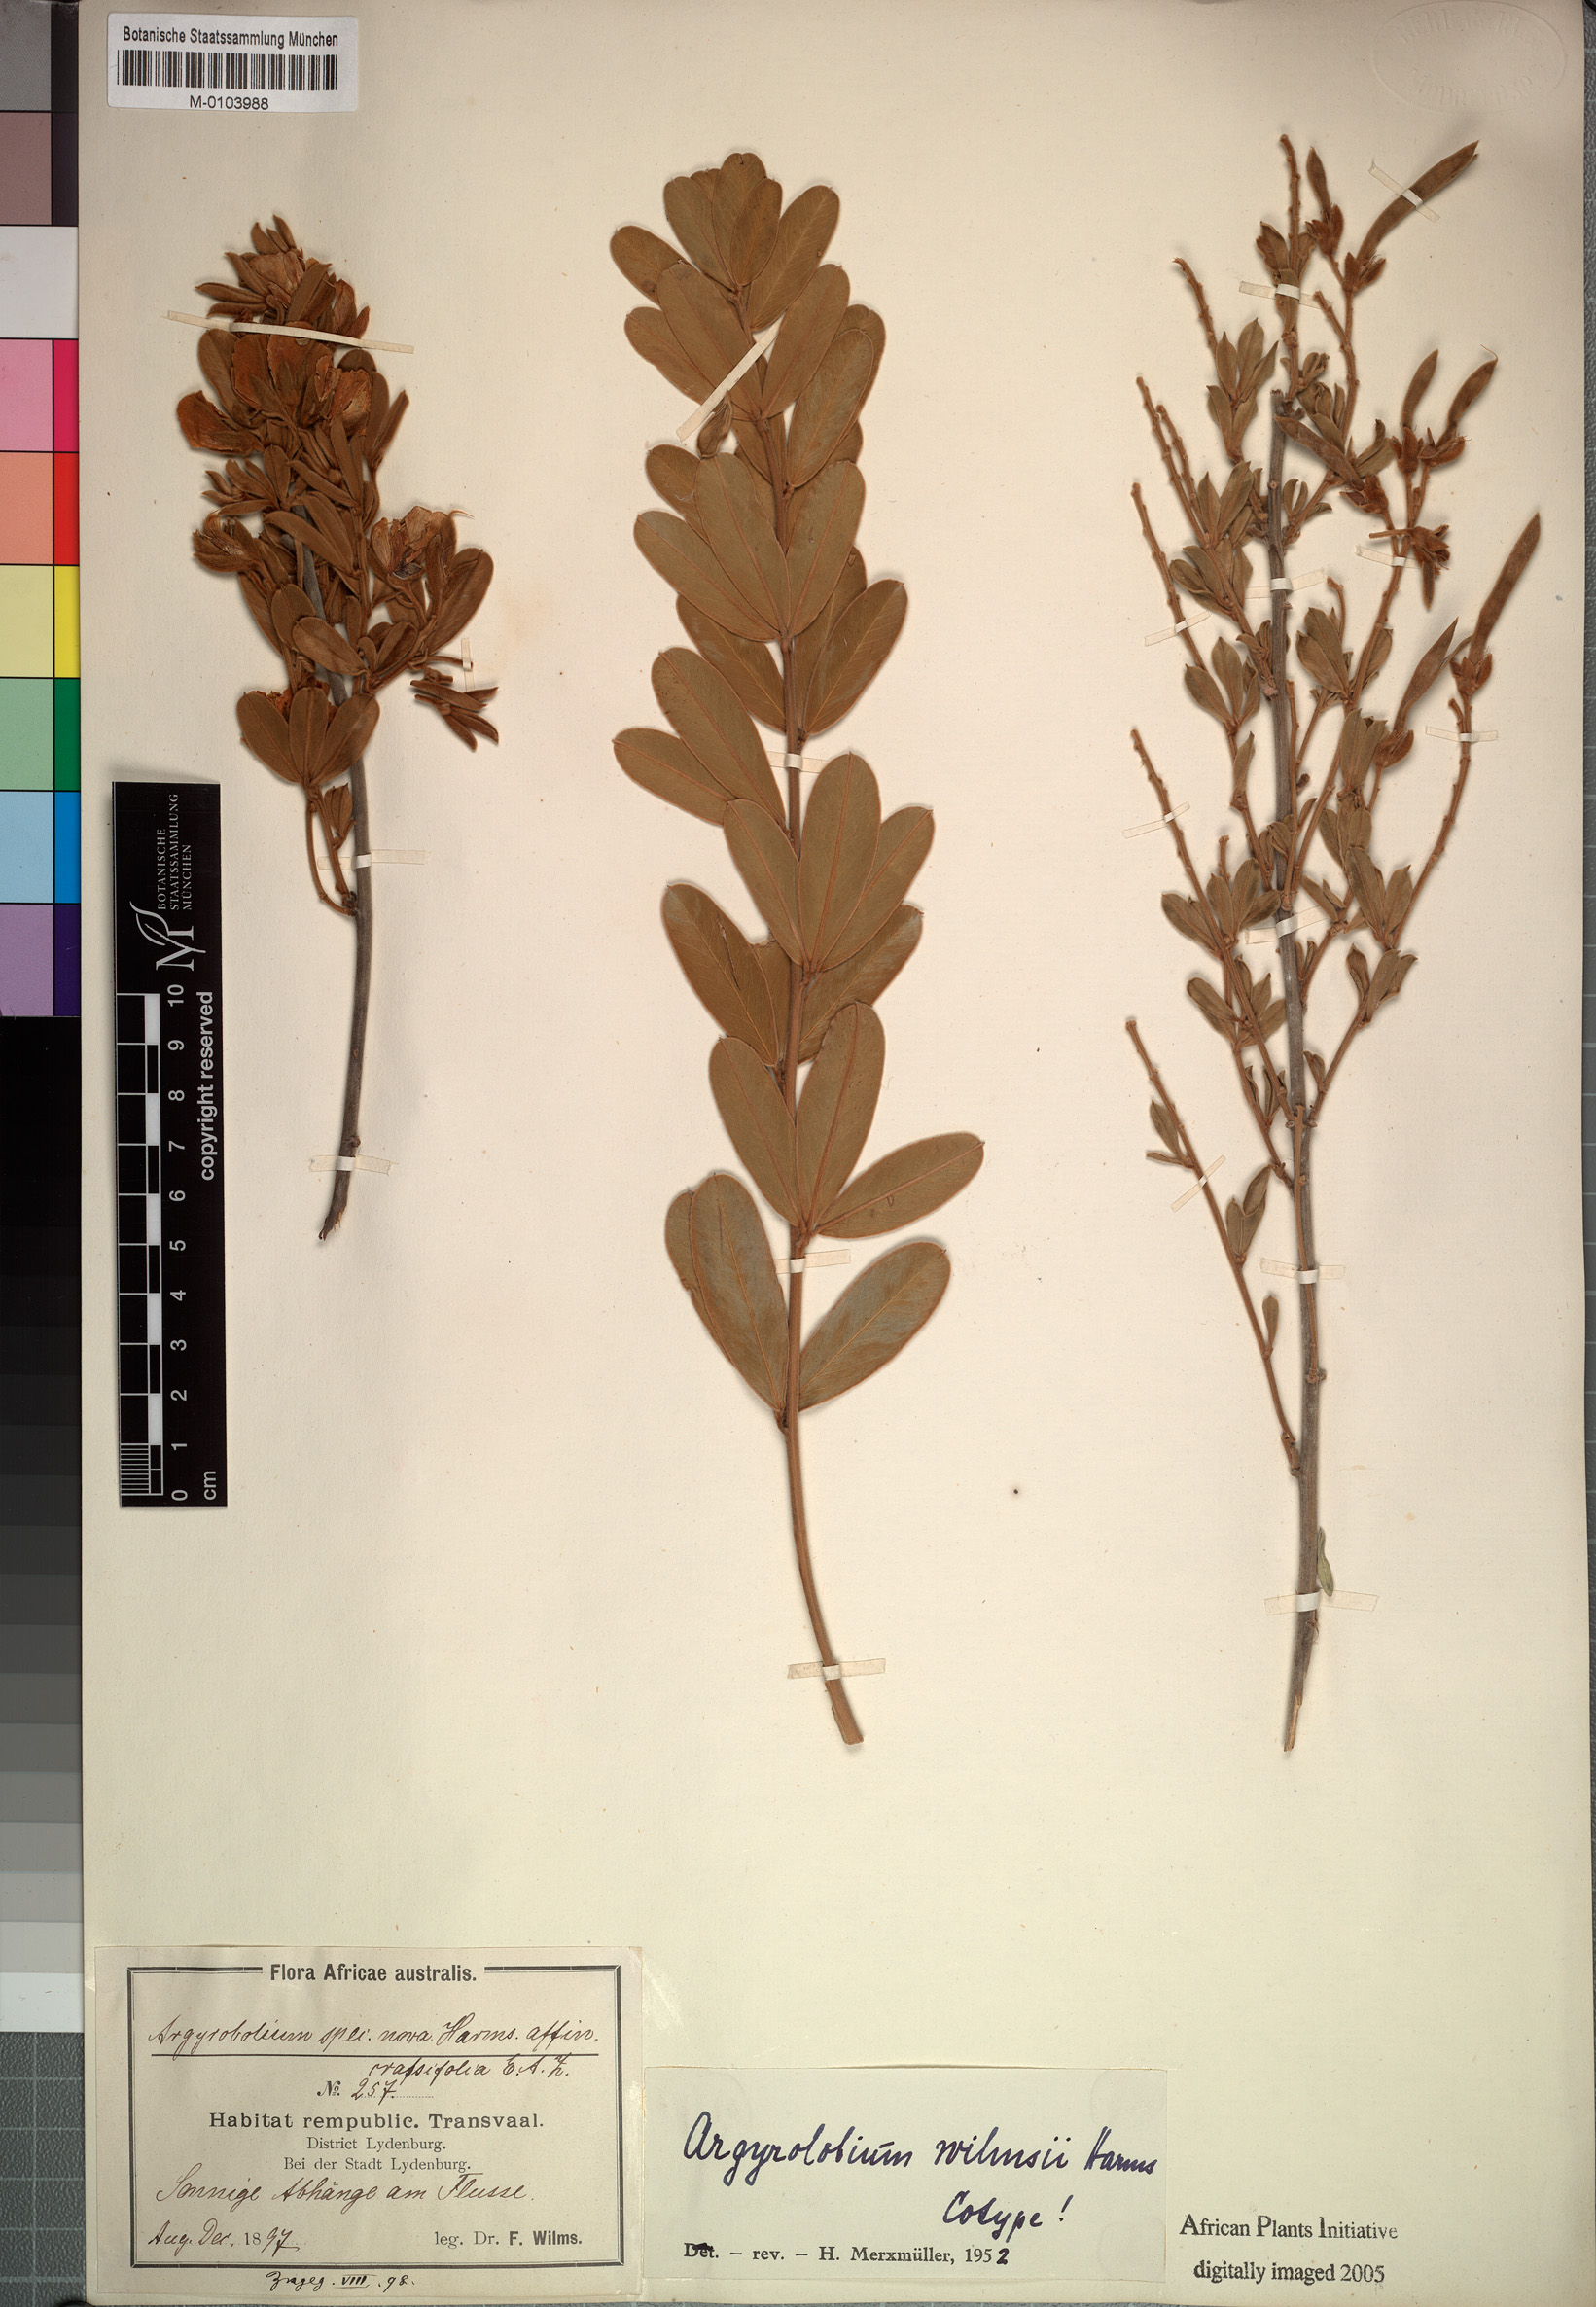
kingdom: Plantae
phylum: Tracheophyta
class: Magnoliopsida
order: Fabales
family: Fabaceae
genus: Argyrolobium
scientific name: Argyrolobium wilmsii
